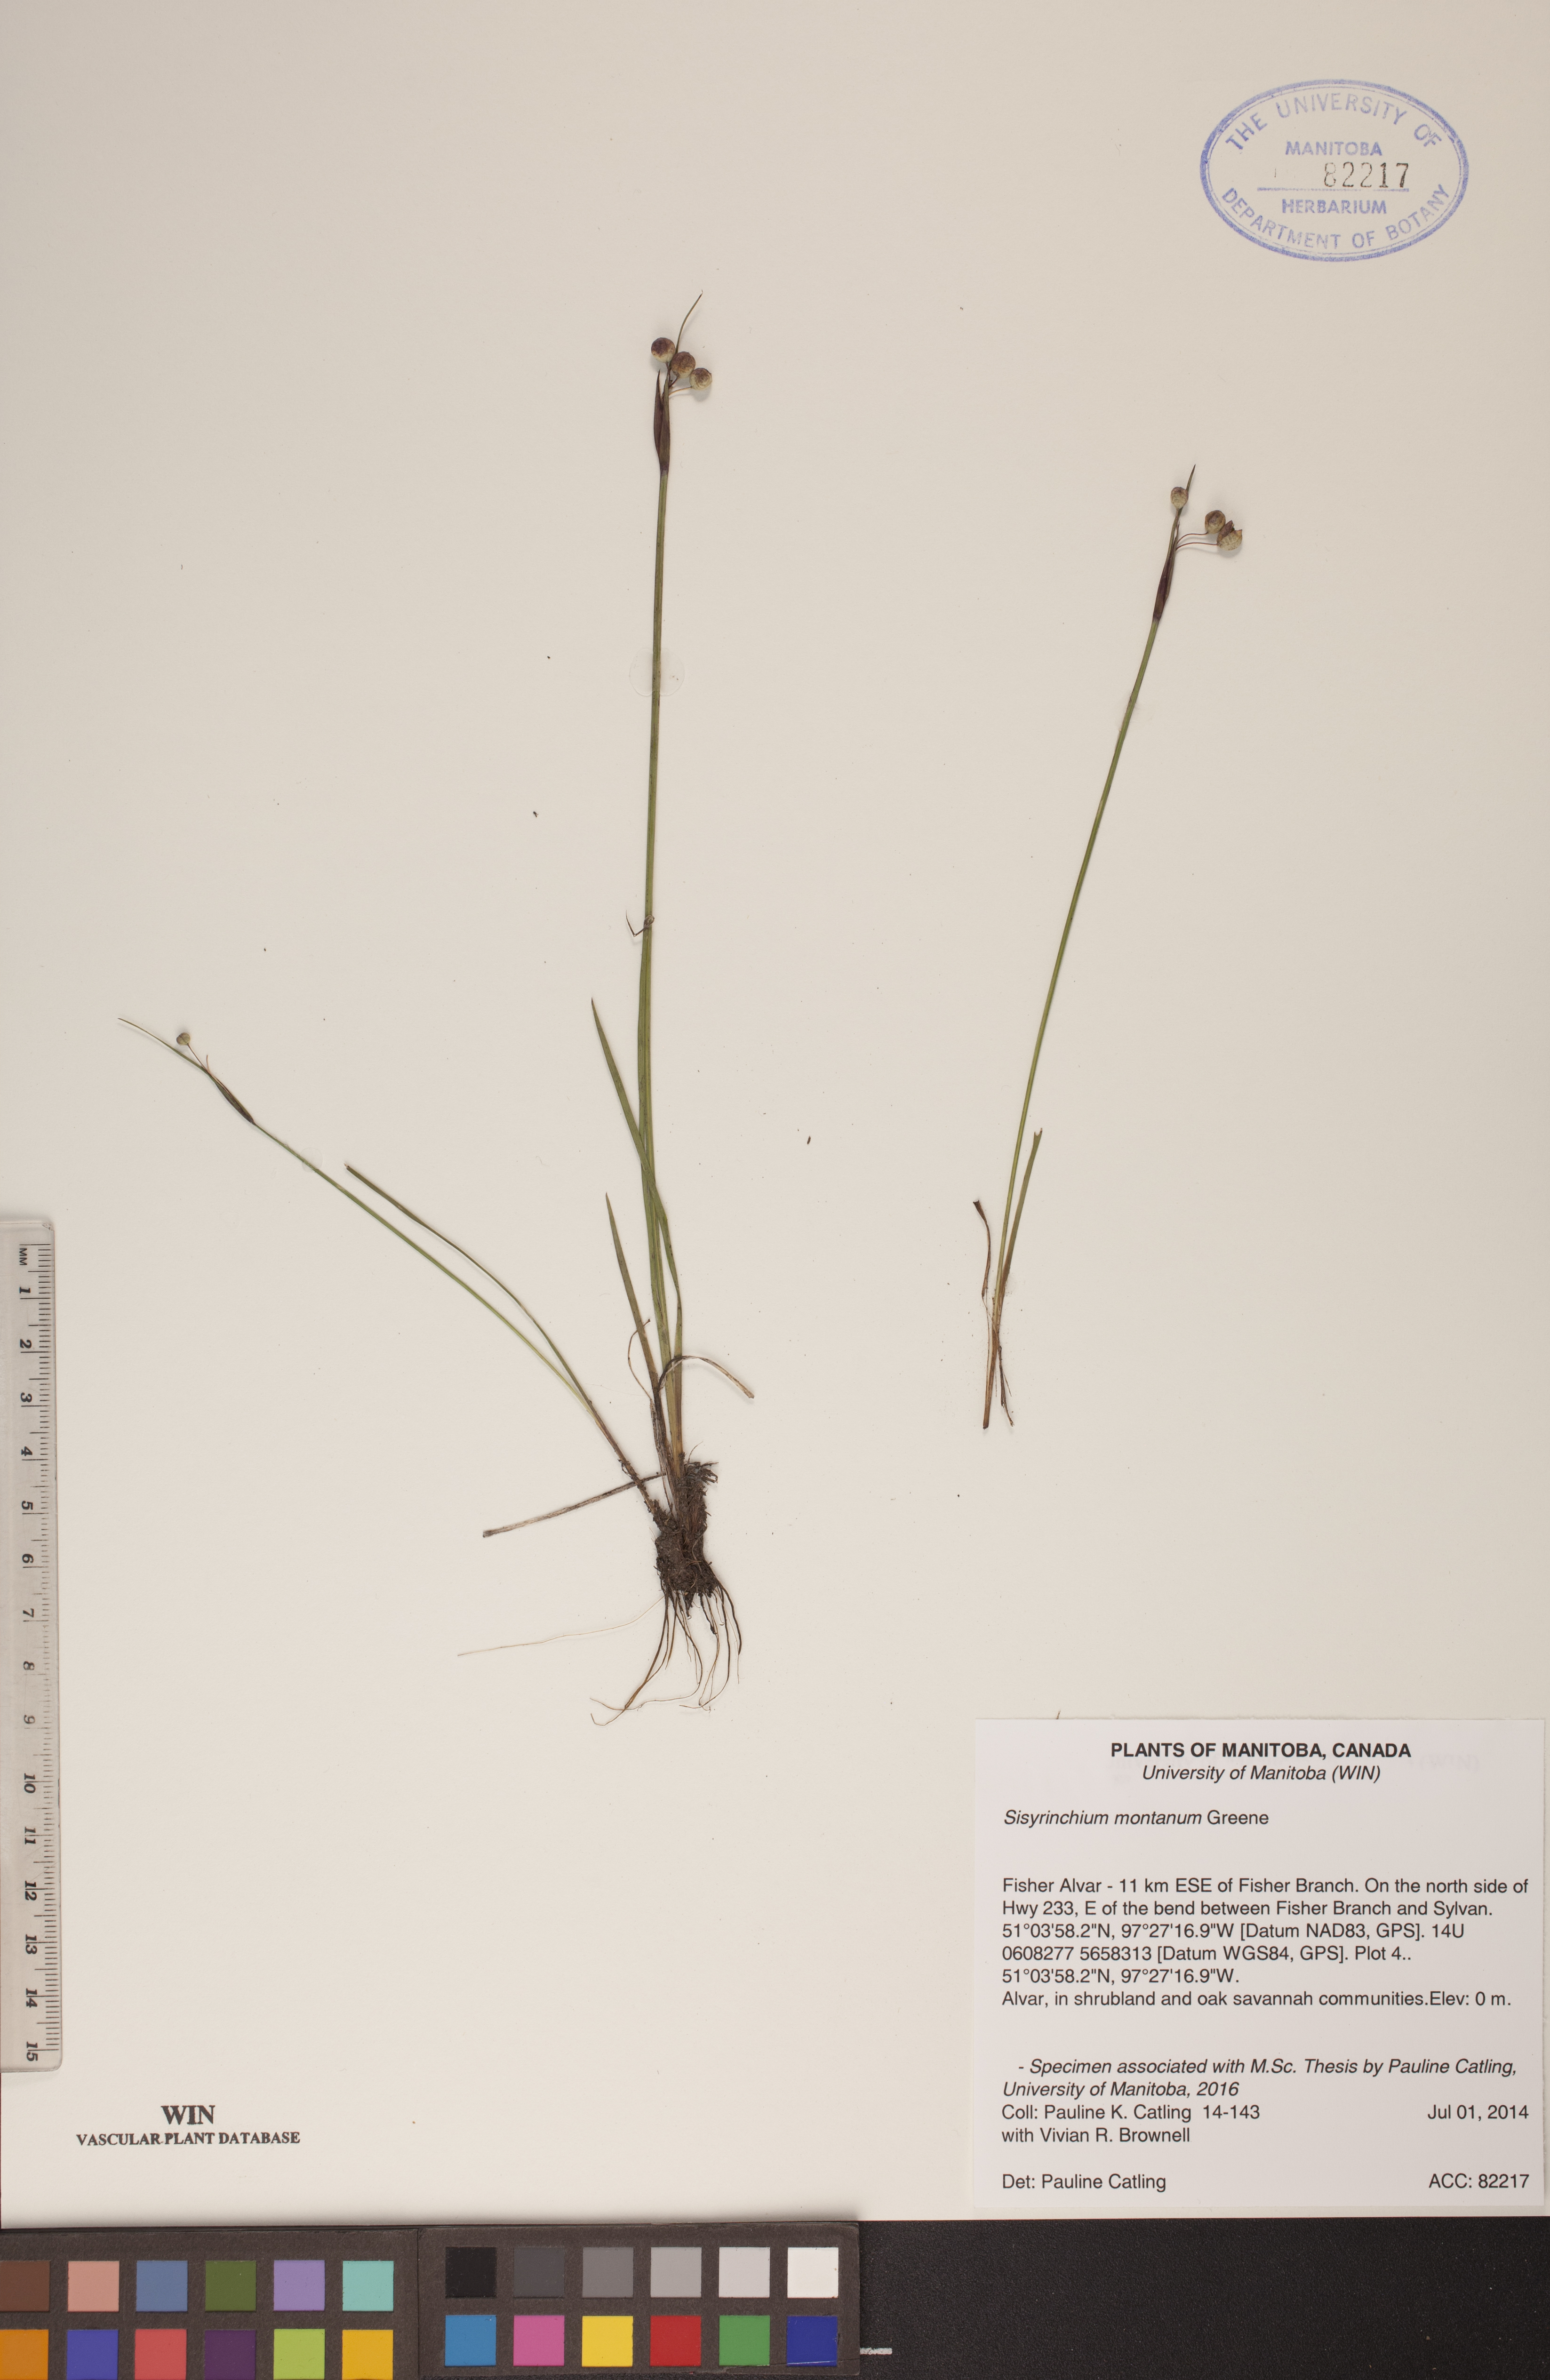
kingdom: Plantae
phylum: Tracheophyta
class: Liliopsida
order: Asparagales
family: Iridaceae
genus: Sisyrinchium
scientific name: Sisyrinchium montanum
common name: American blue-eyed-grass
